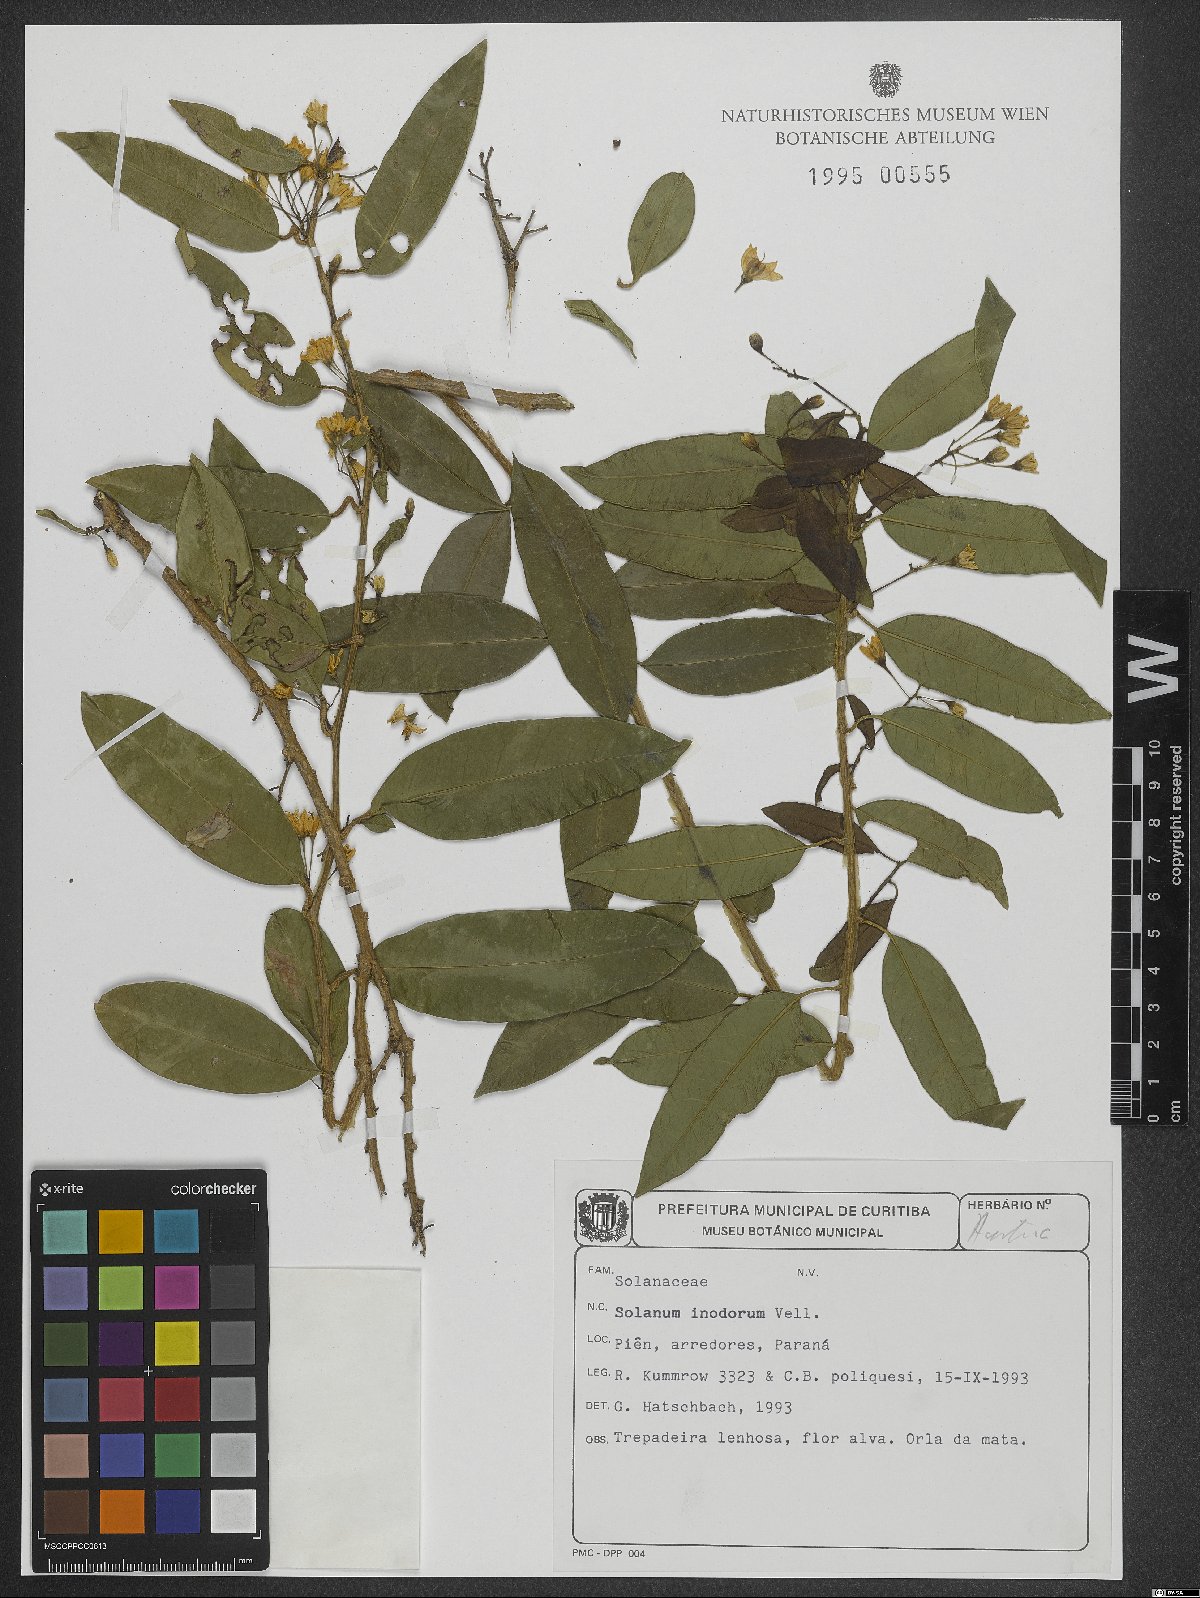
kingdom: Plantae
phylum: Tracheophyta
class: Magnoliopsida
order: Solanales
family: Solanaceae
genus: Solanum
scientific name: Solanum inodorum
